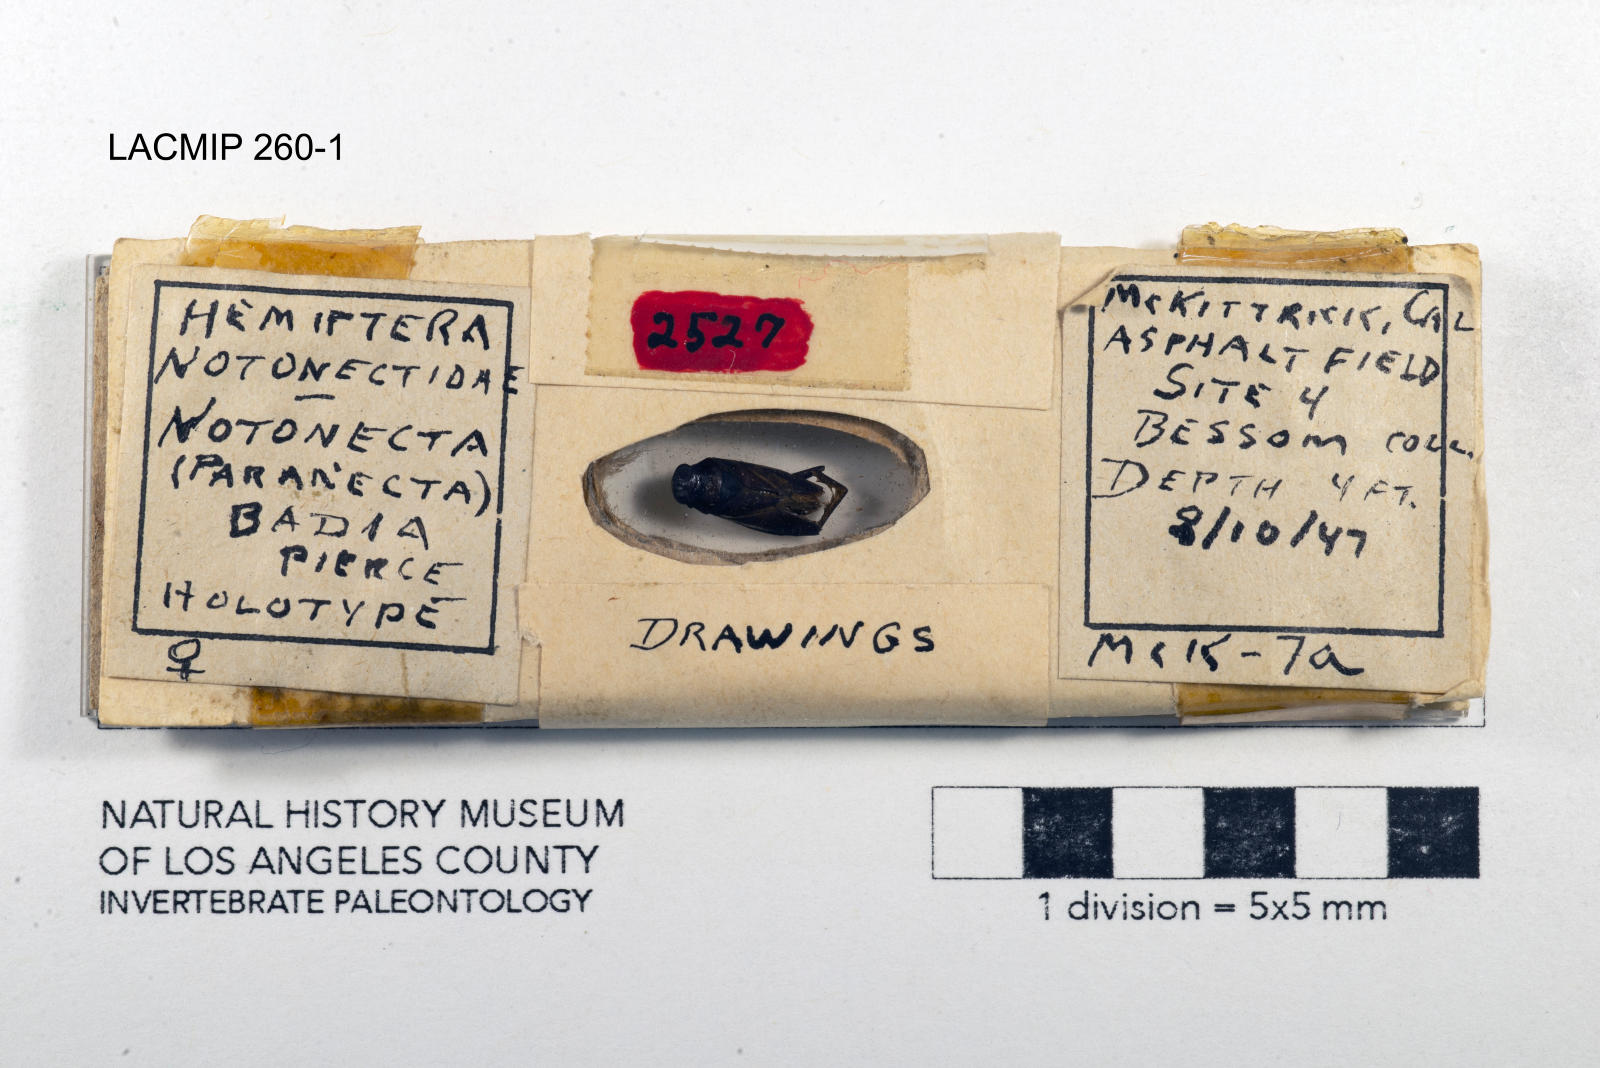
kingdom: Animalia
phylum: Arthropoda
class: Insecta
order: Hemiptera
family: Notonectidae
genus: Notonecta
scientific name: Notonecta unifasciata
